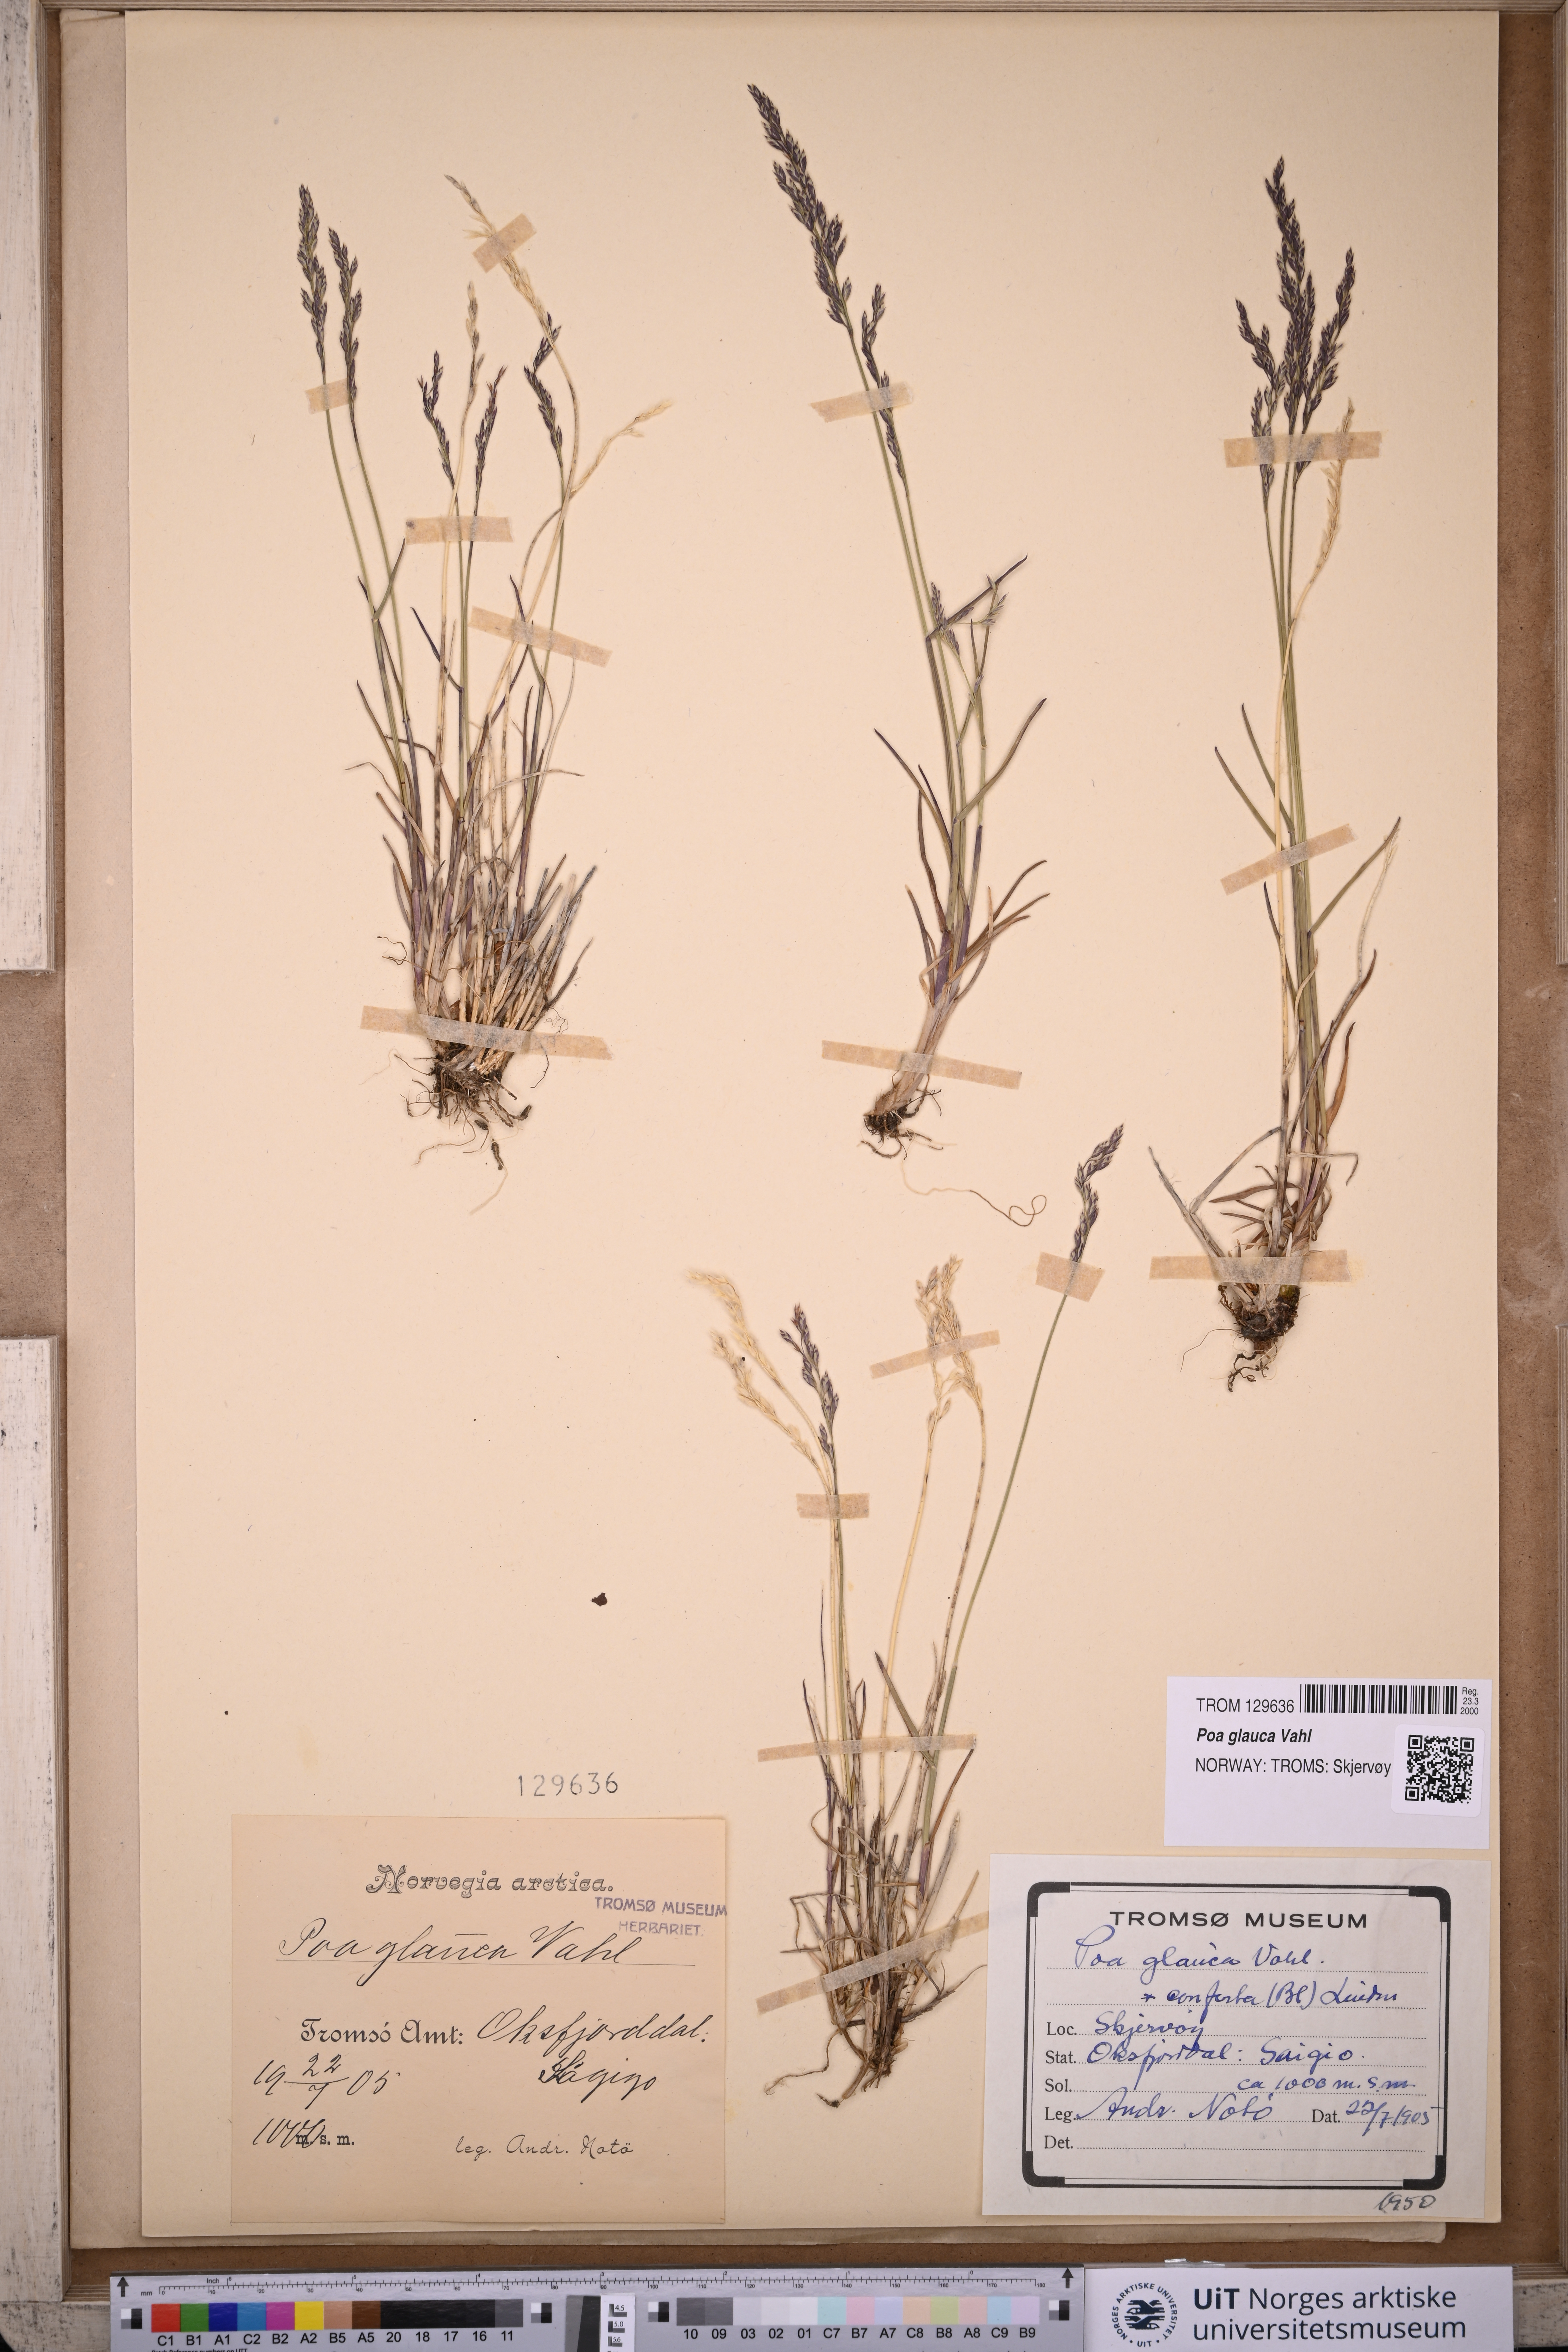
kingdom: Plantae
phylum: Tracheophyta
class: Liliopsida
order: Poales
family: Poaceae
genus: Poa
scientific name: Poa glauca
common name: Glaucous bluegrass
